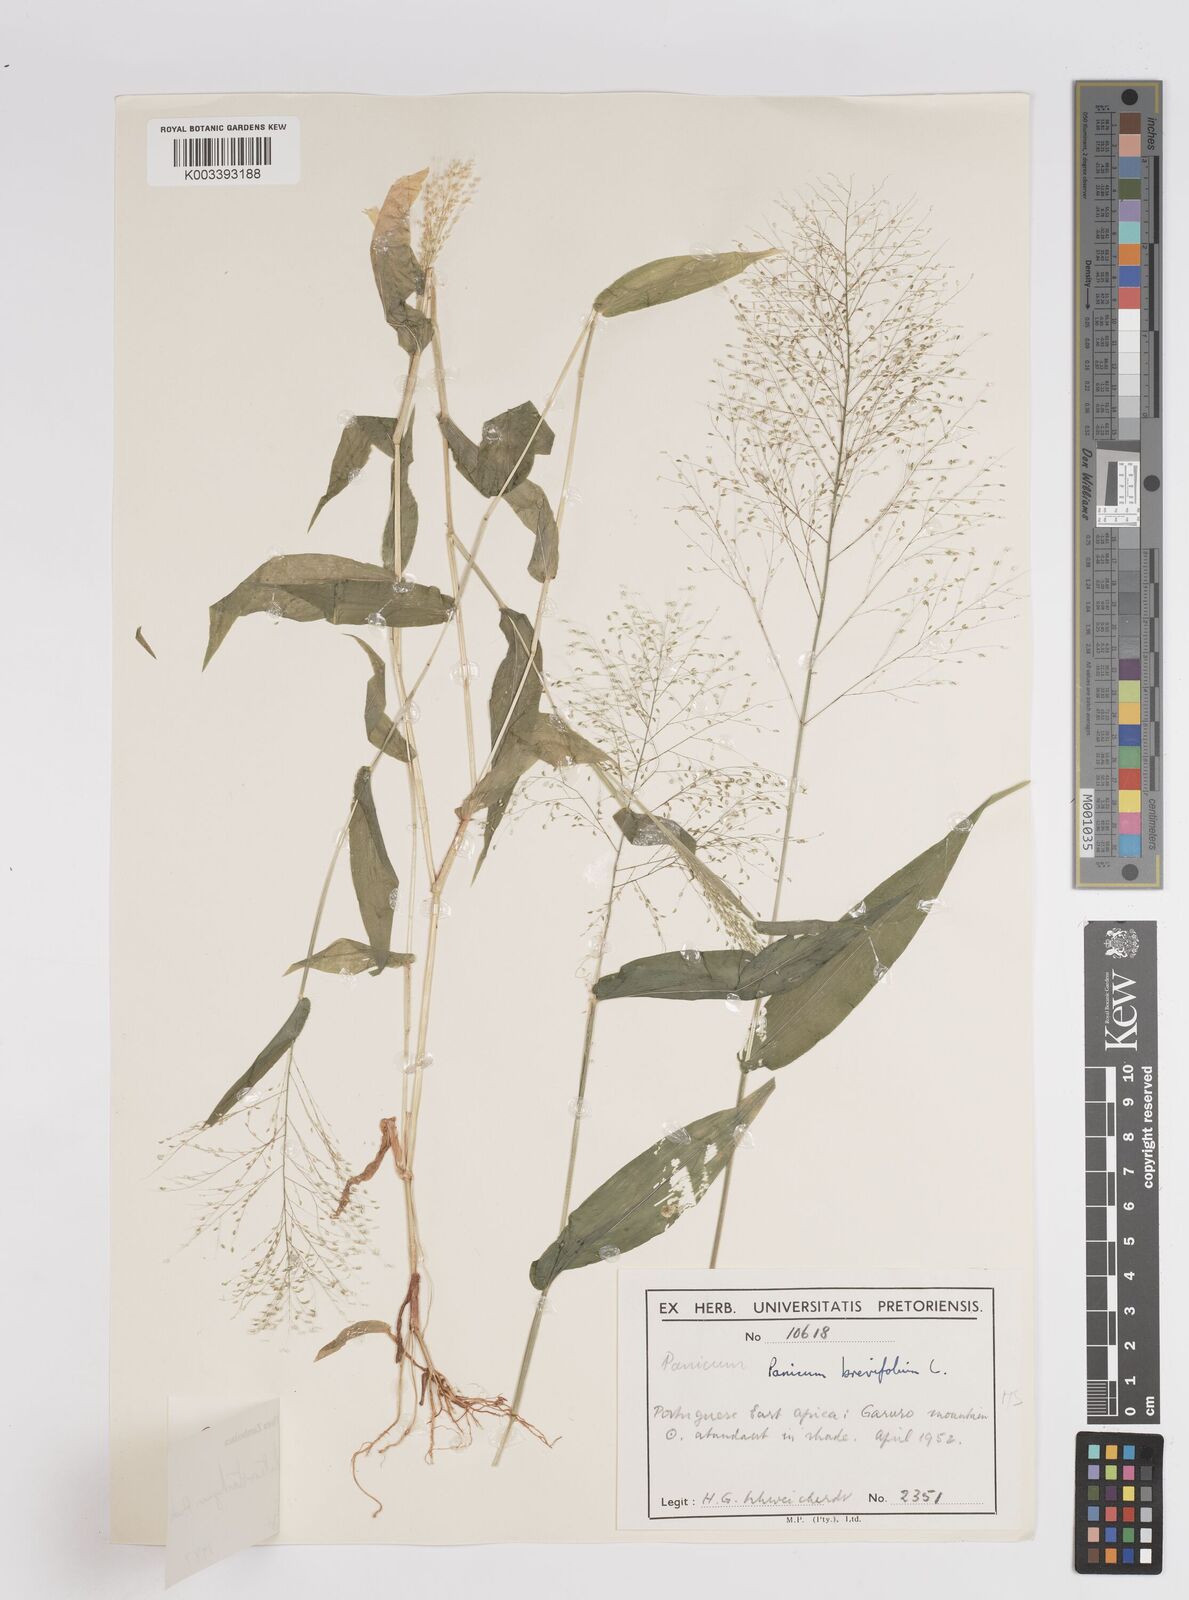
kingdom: Plantae
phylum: Tracheophyta
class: Liliopsida
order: Poales
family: Poaceae
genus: Panicum
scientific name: Panicum hirtum
